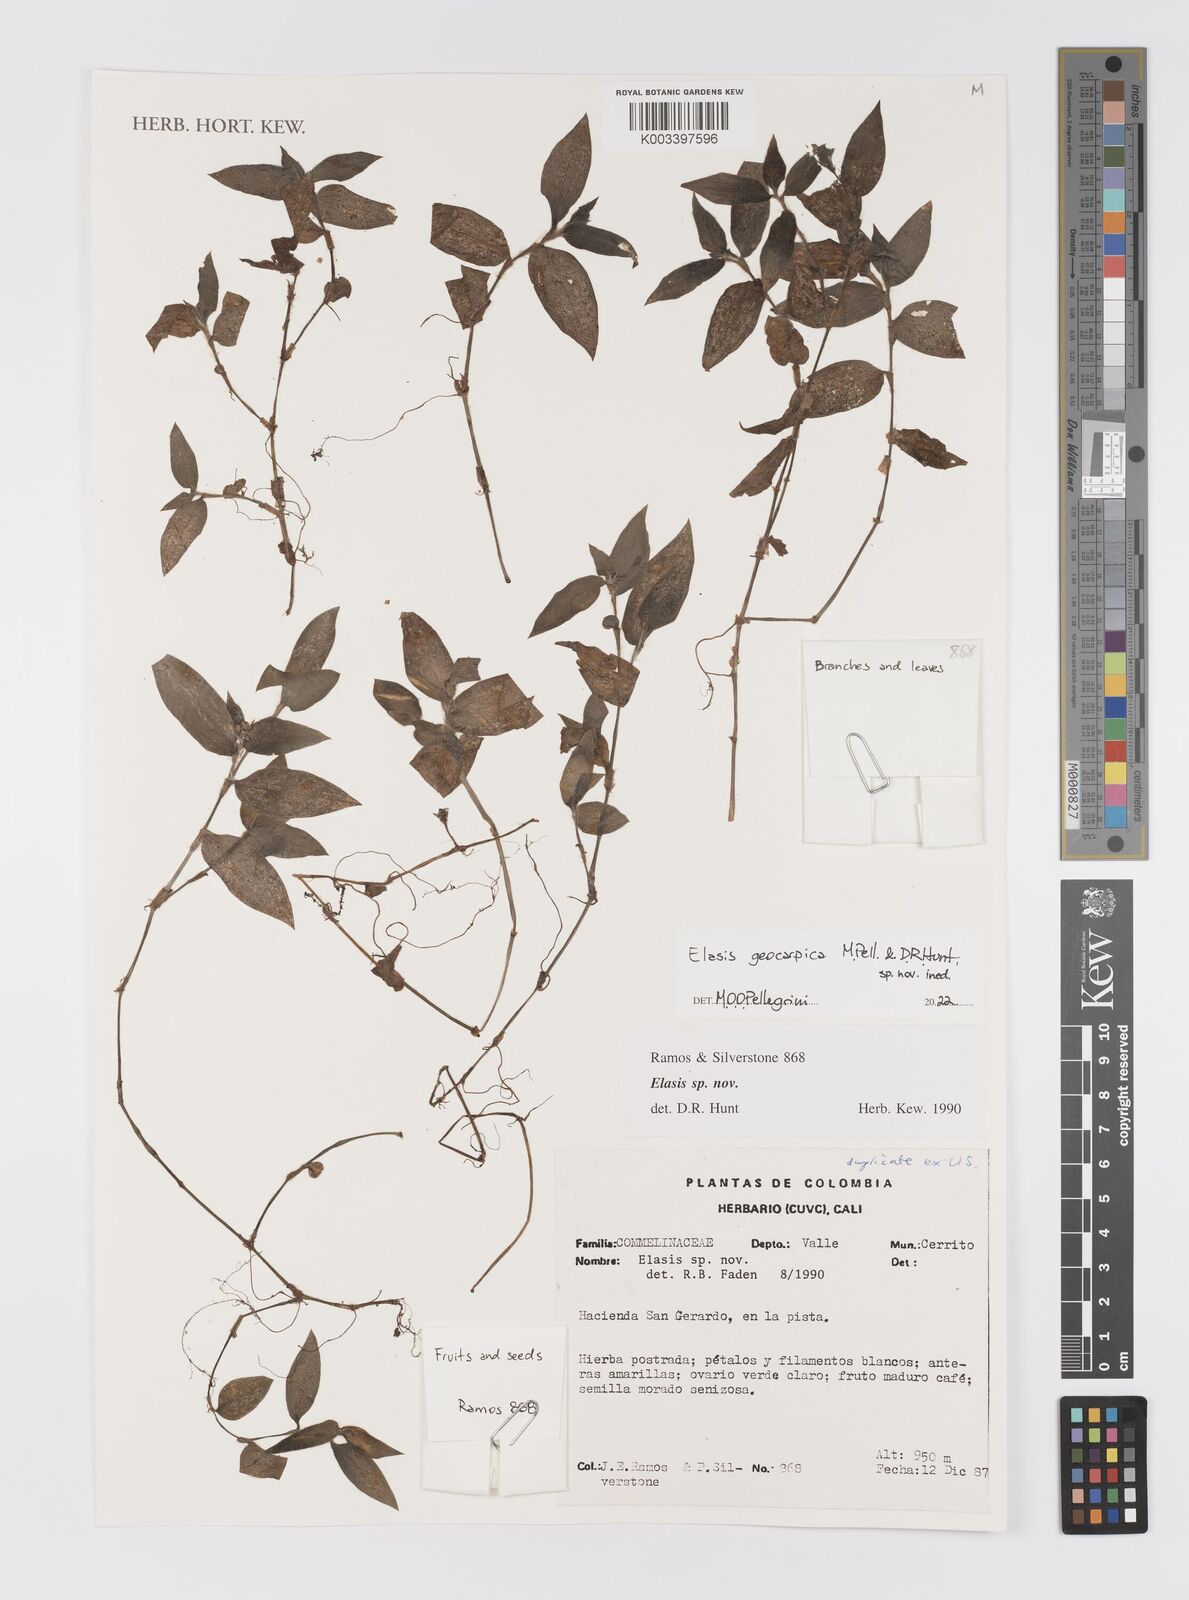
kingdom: Plantae
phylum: Tracheophyta
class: Liliopsida
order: Commelinales
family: Commelinaceae
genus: Elasis
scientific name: Elasis
